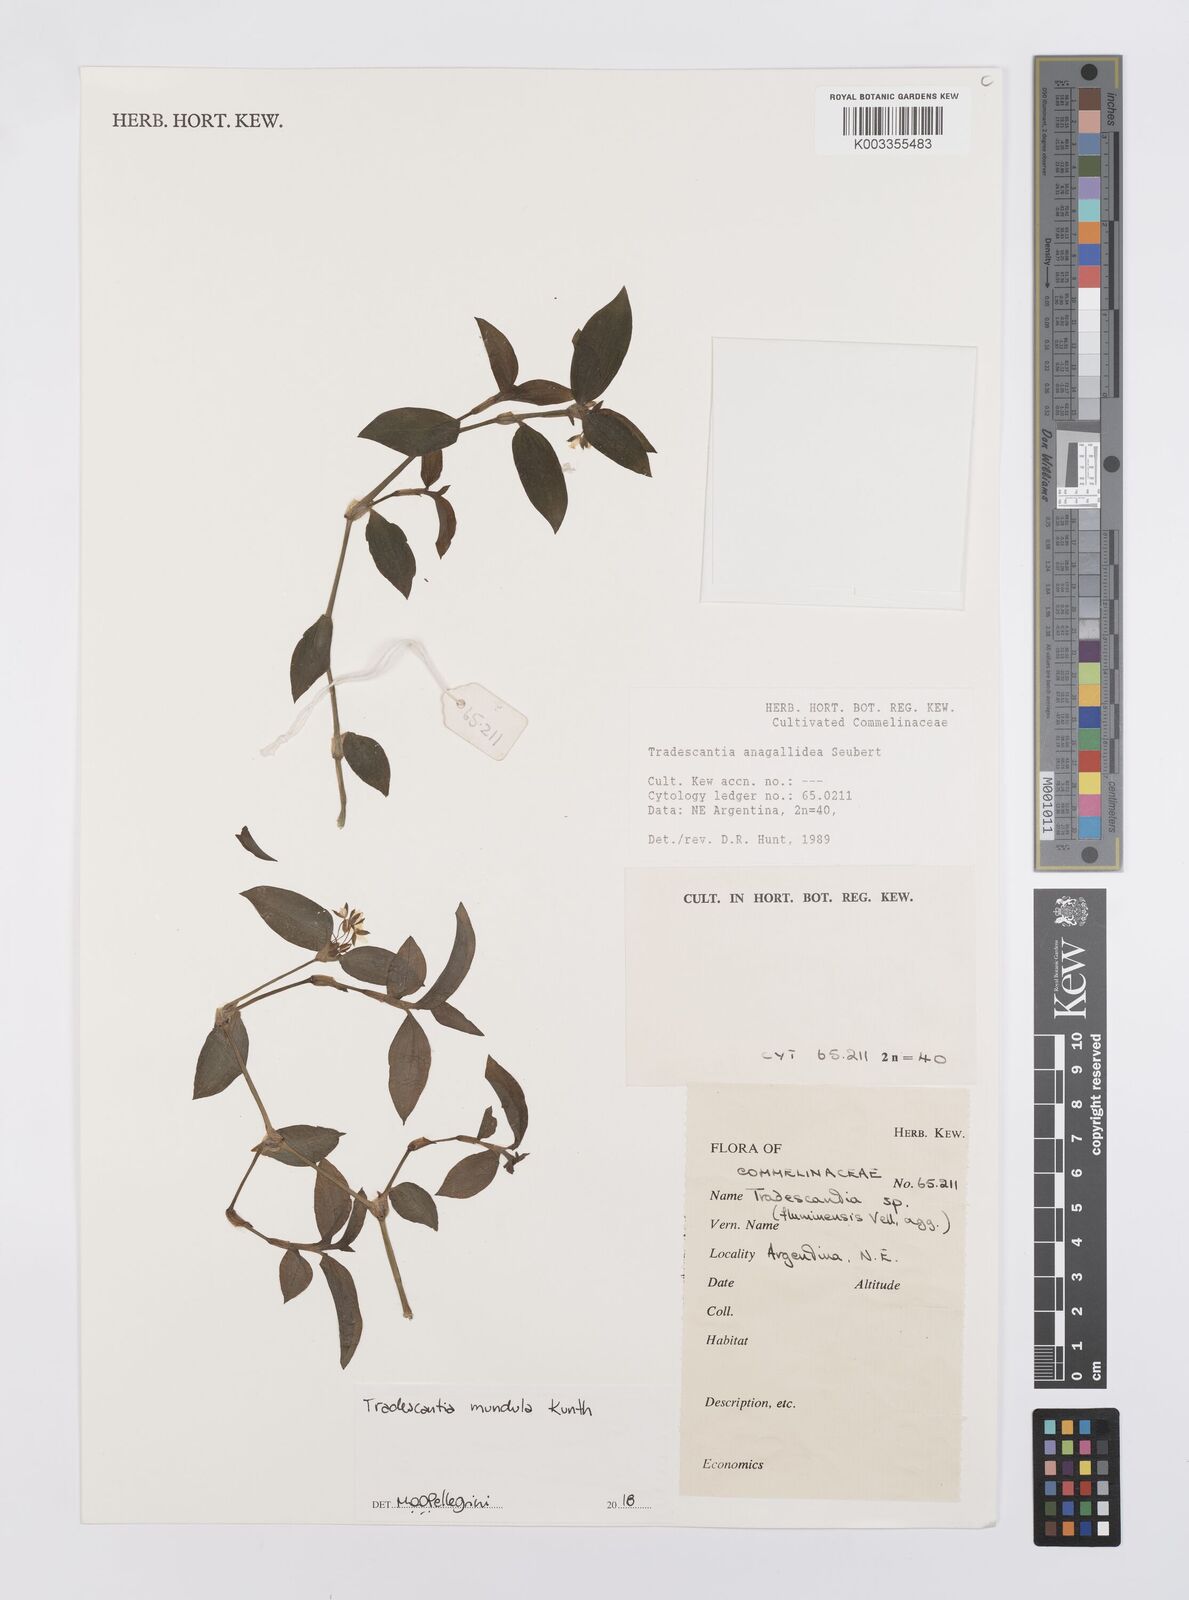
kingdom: Plantae
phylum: Tracheophyta
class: Liliopsida
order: Commelinales
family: Commelinaceae
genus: Tradescantia
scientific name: Tradescantia mundula
